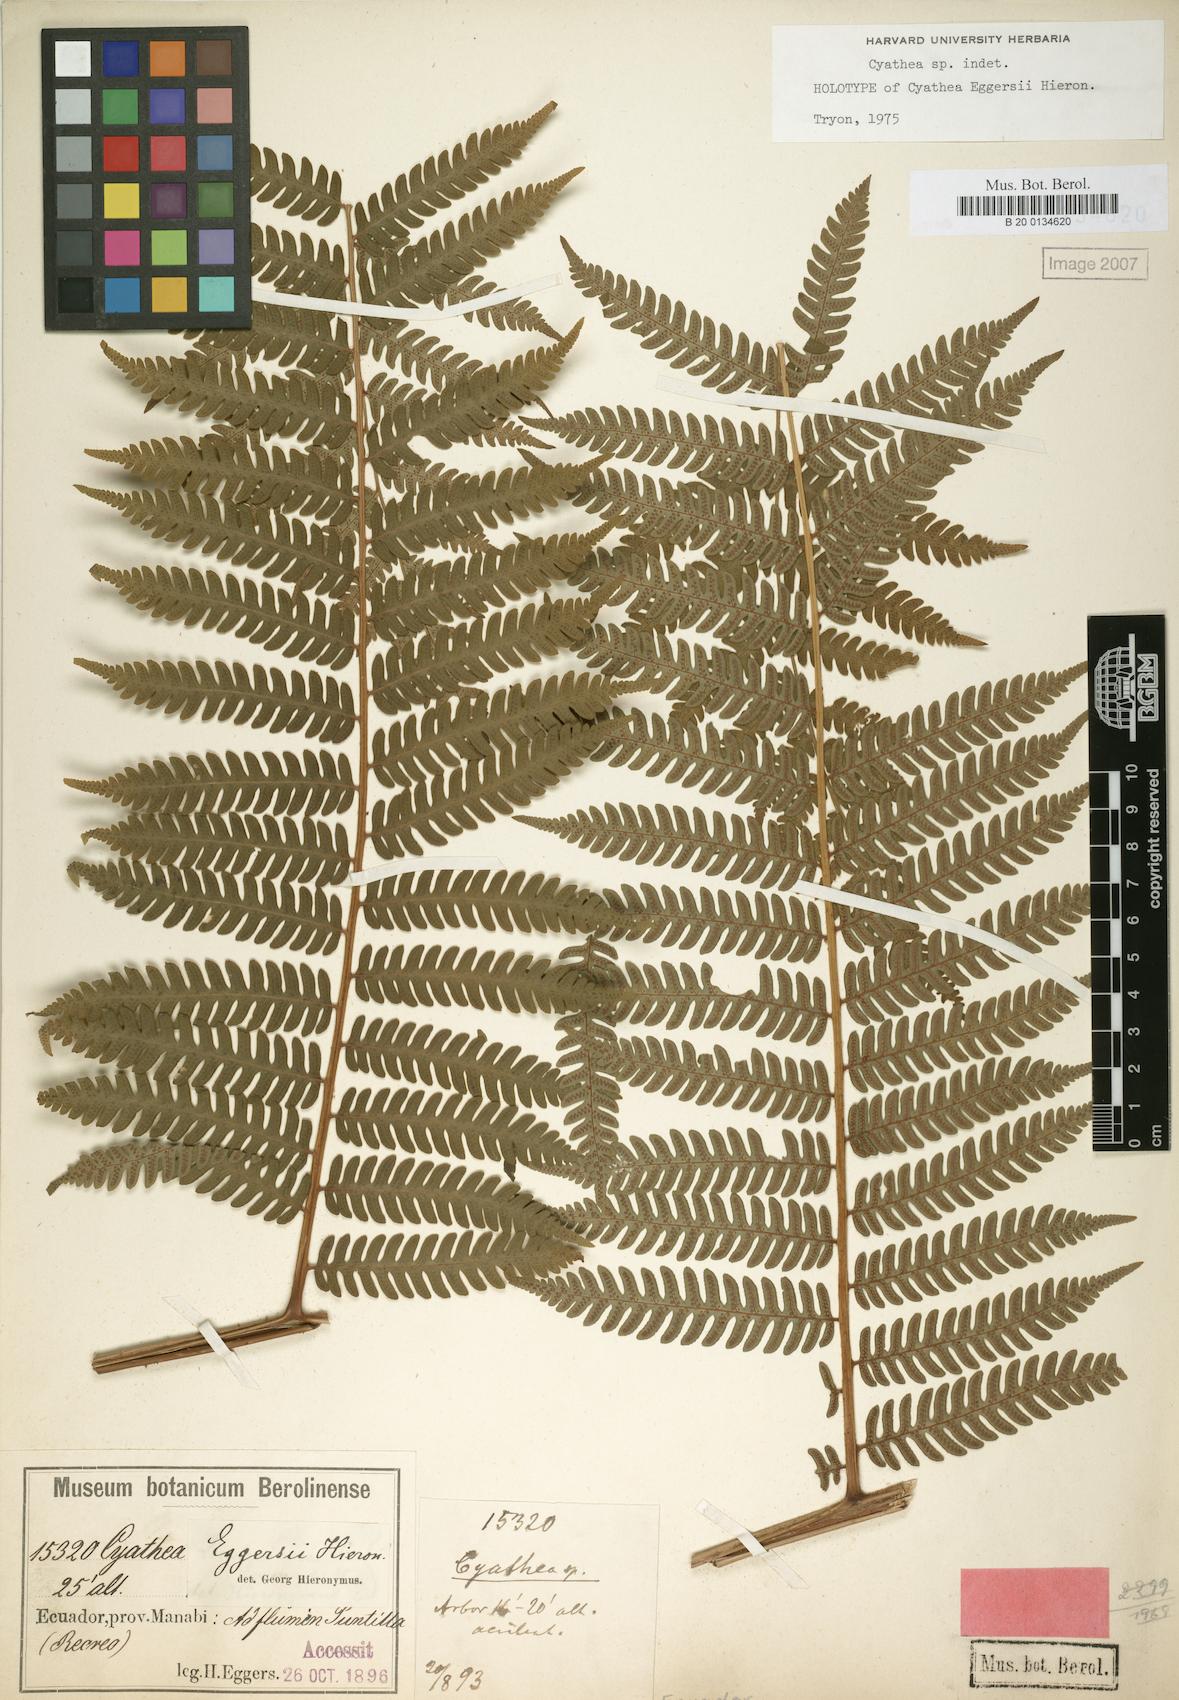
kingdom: Plantae
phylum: Tracheophyta
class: Polypodiopsida
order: Cyatheales
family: Cyatheaceae
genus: Cyathea
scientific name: Cyathea eggersii
